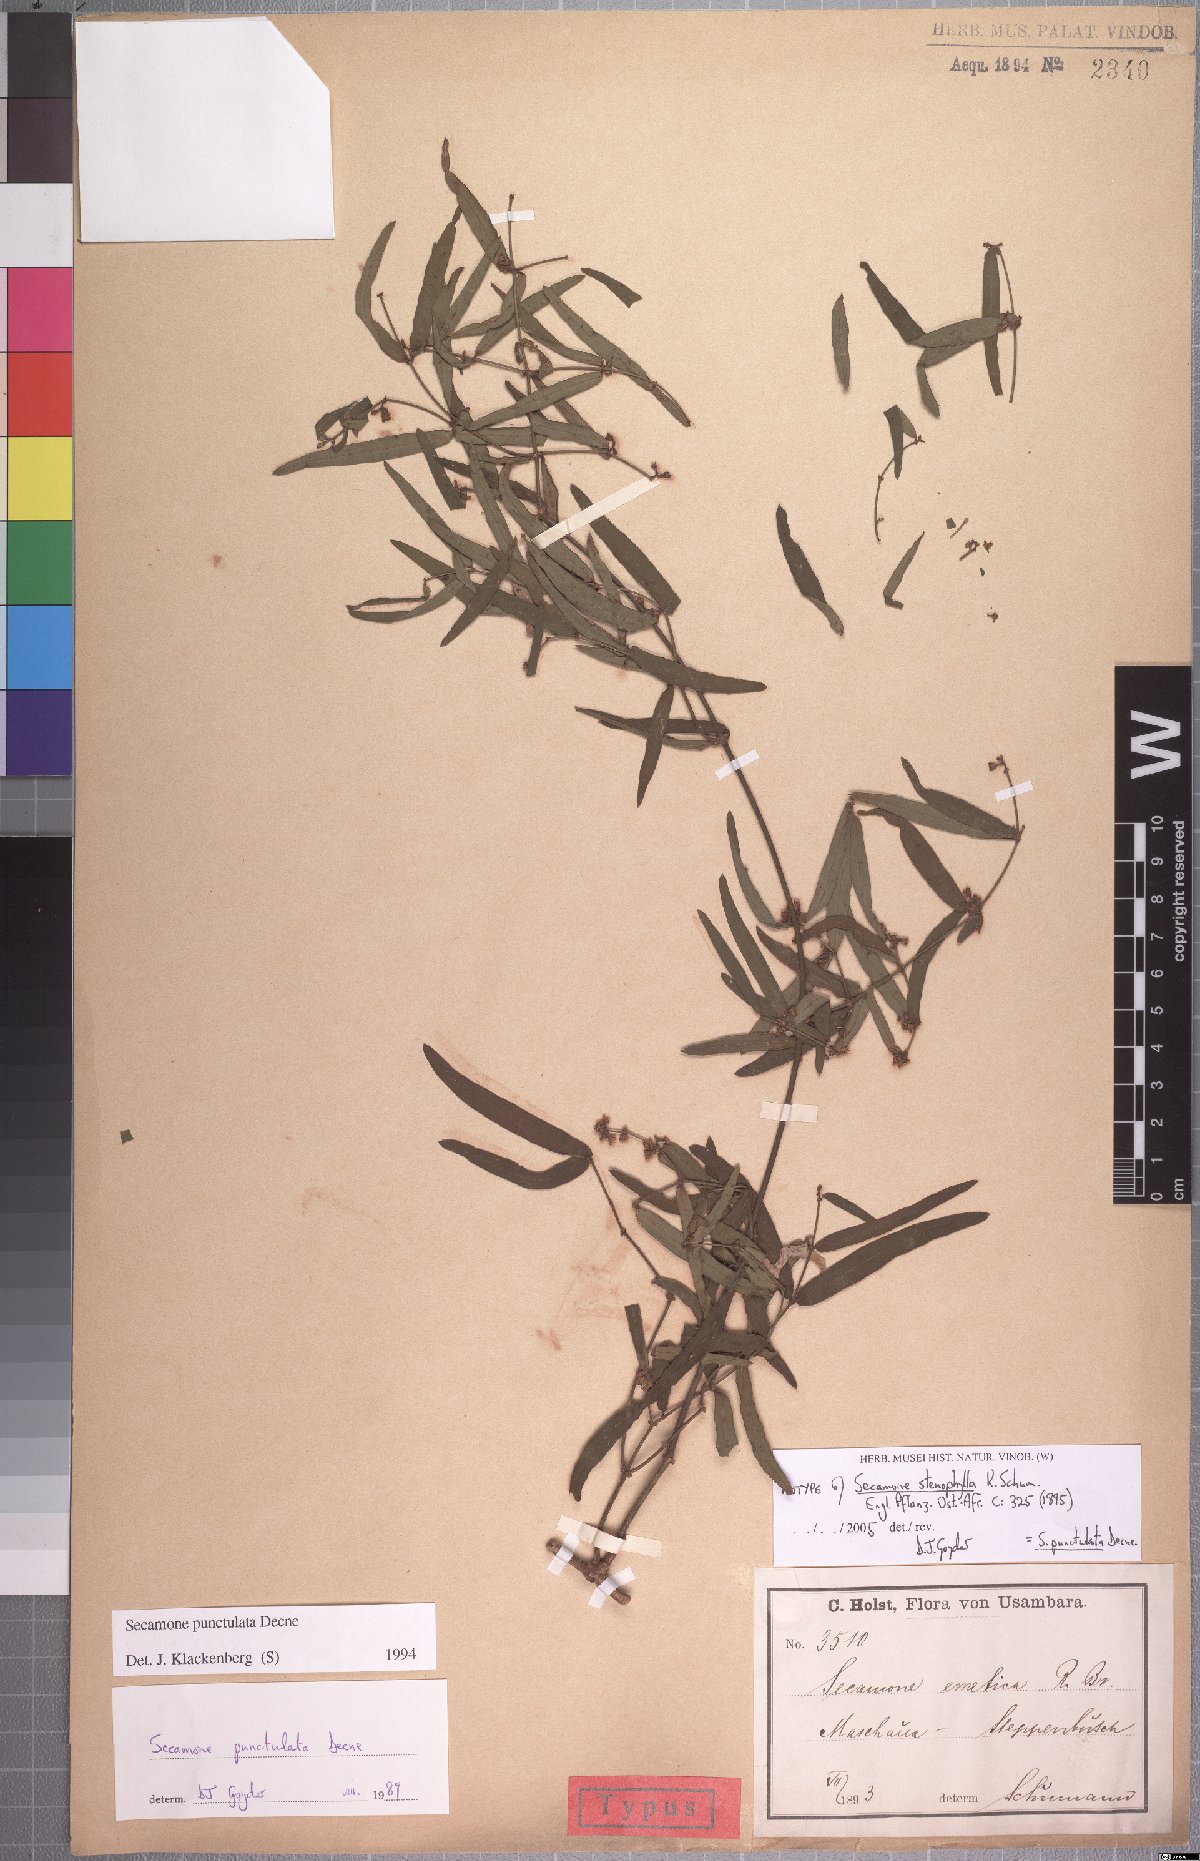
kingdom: Plantae
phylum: Tracheophyta
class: Magnoliopsida
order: Gentianales
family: Apocynaceae
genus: Secamone
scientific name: Secamone punctulata
